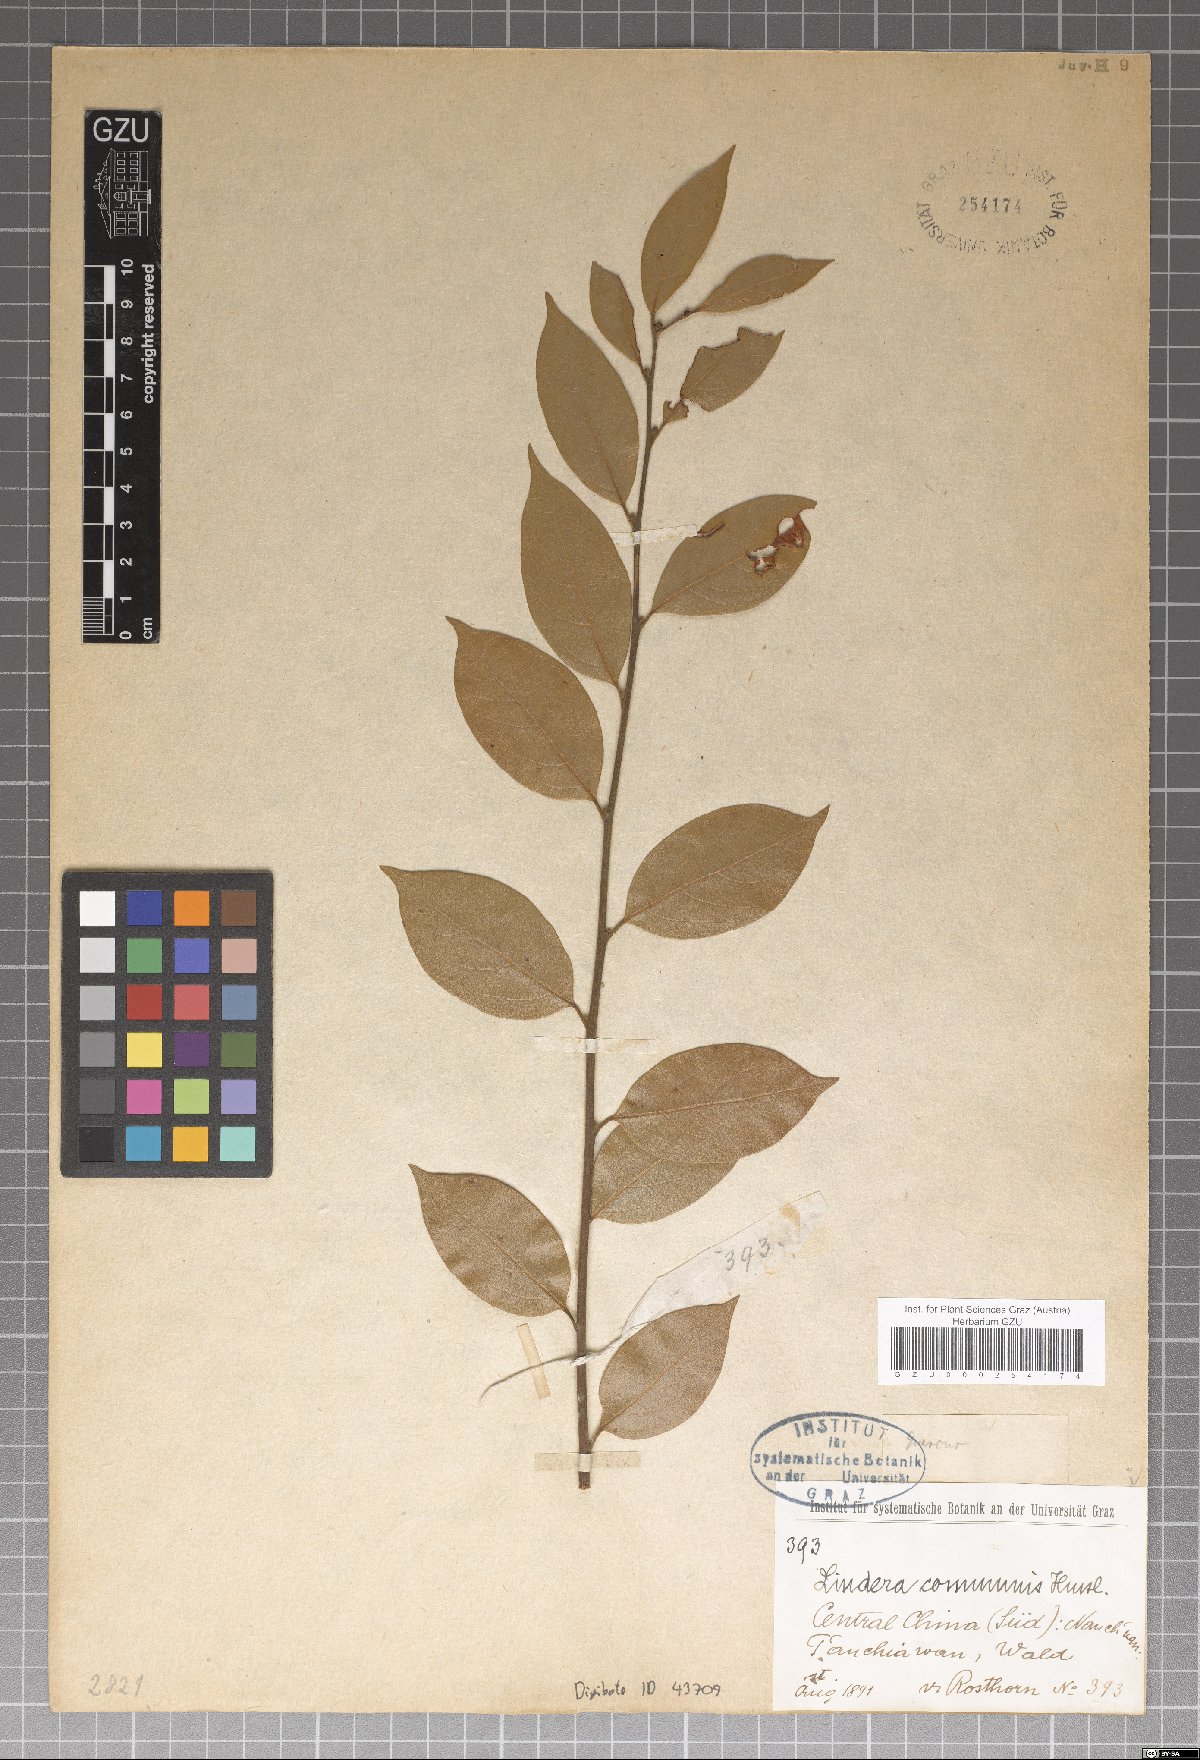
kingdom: Plantae
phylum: Tracheophyta
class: Magnoliopsida
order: Laurales
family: Lauraceae
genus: Lindera
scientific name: Lindera communis
